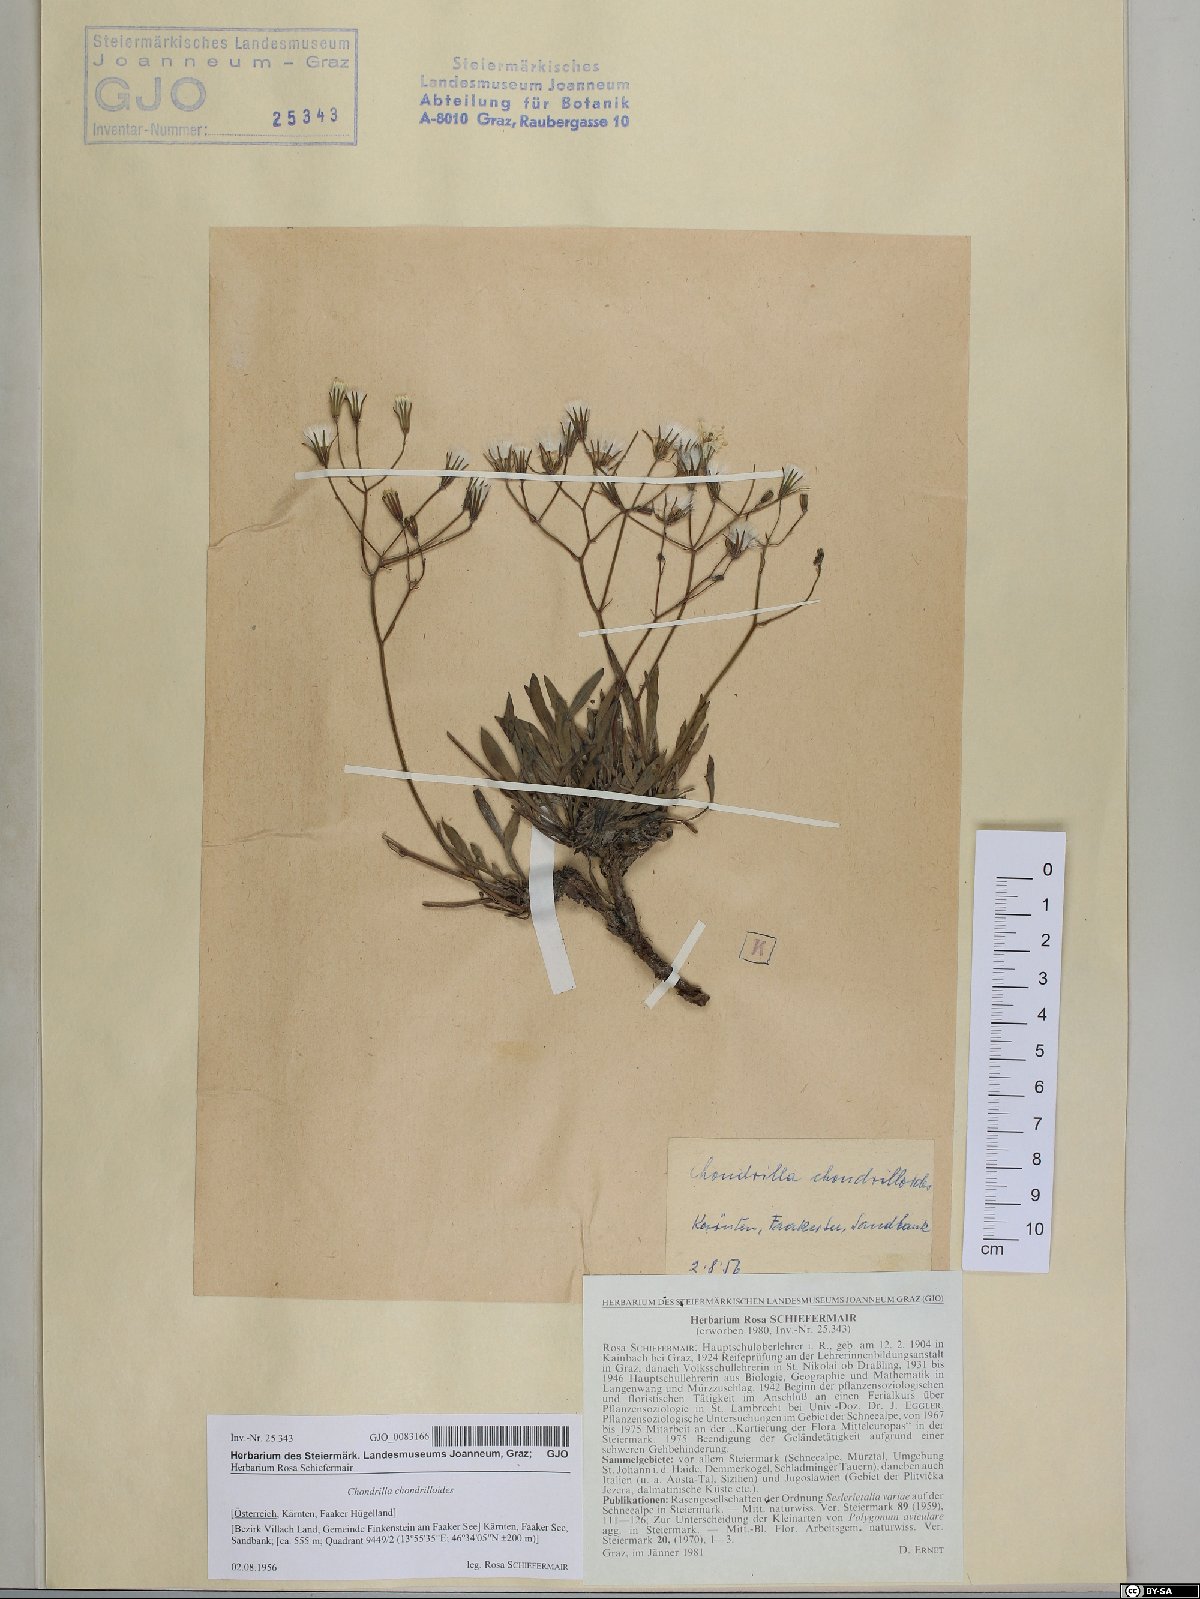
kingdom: Plantae
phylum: Tracheophyta
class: Magnoliopsida
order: Asterales
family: Asteraceae
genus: Chondrilla
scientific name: Chondrilla chondrilloides
